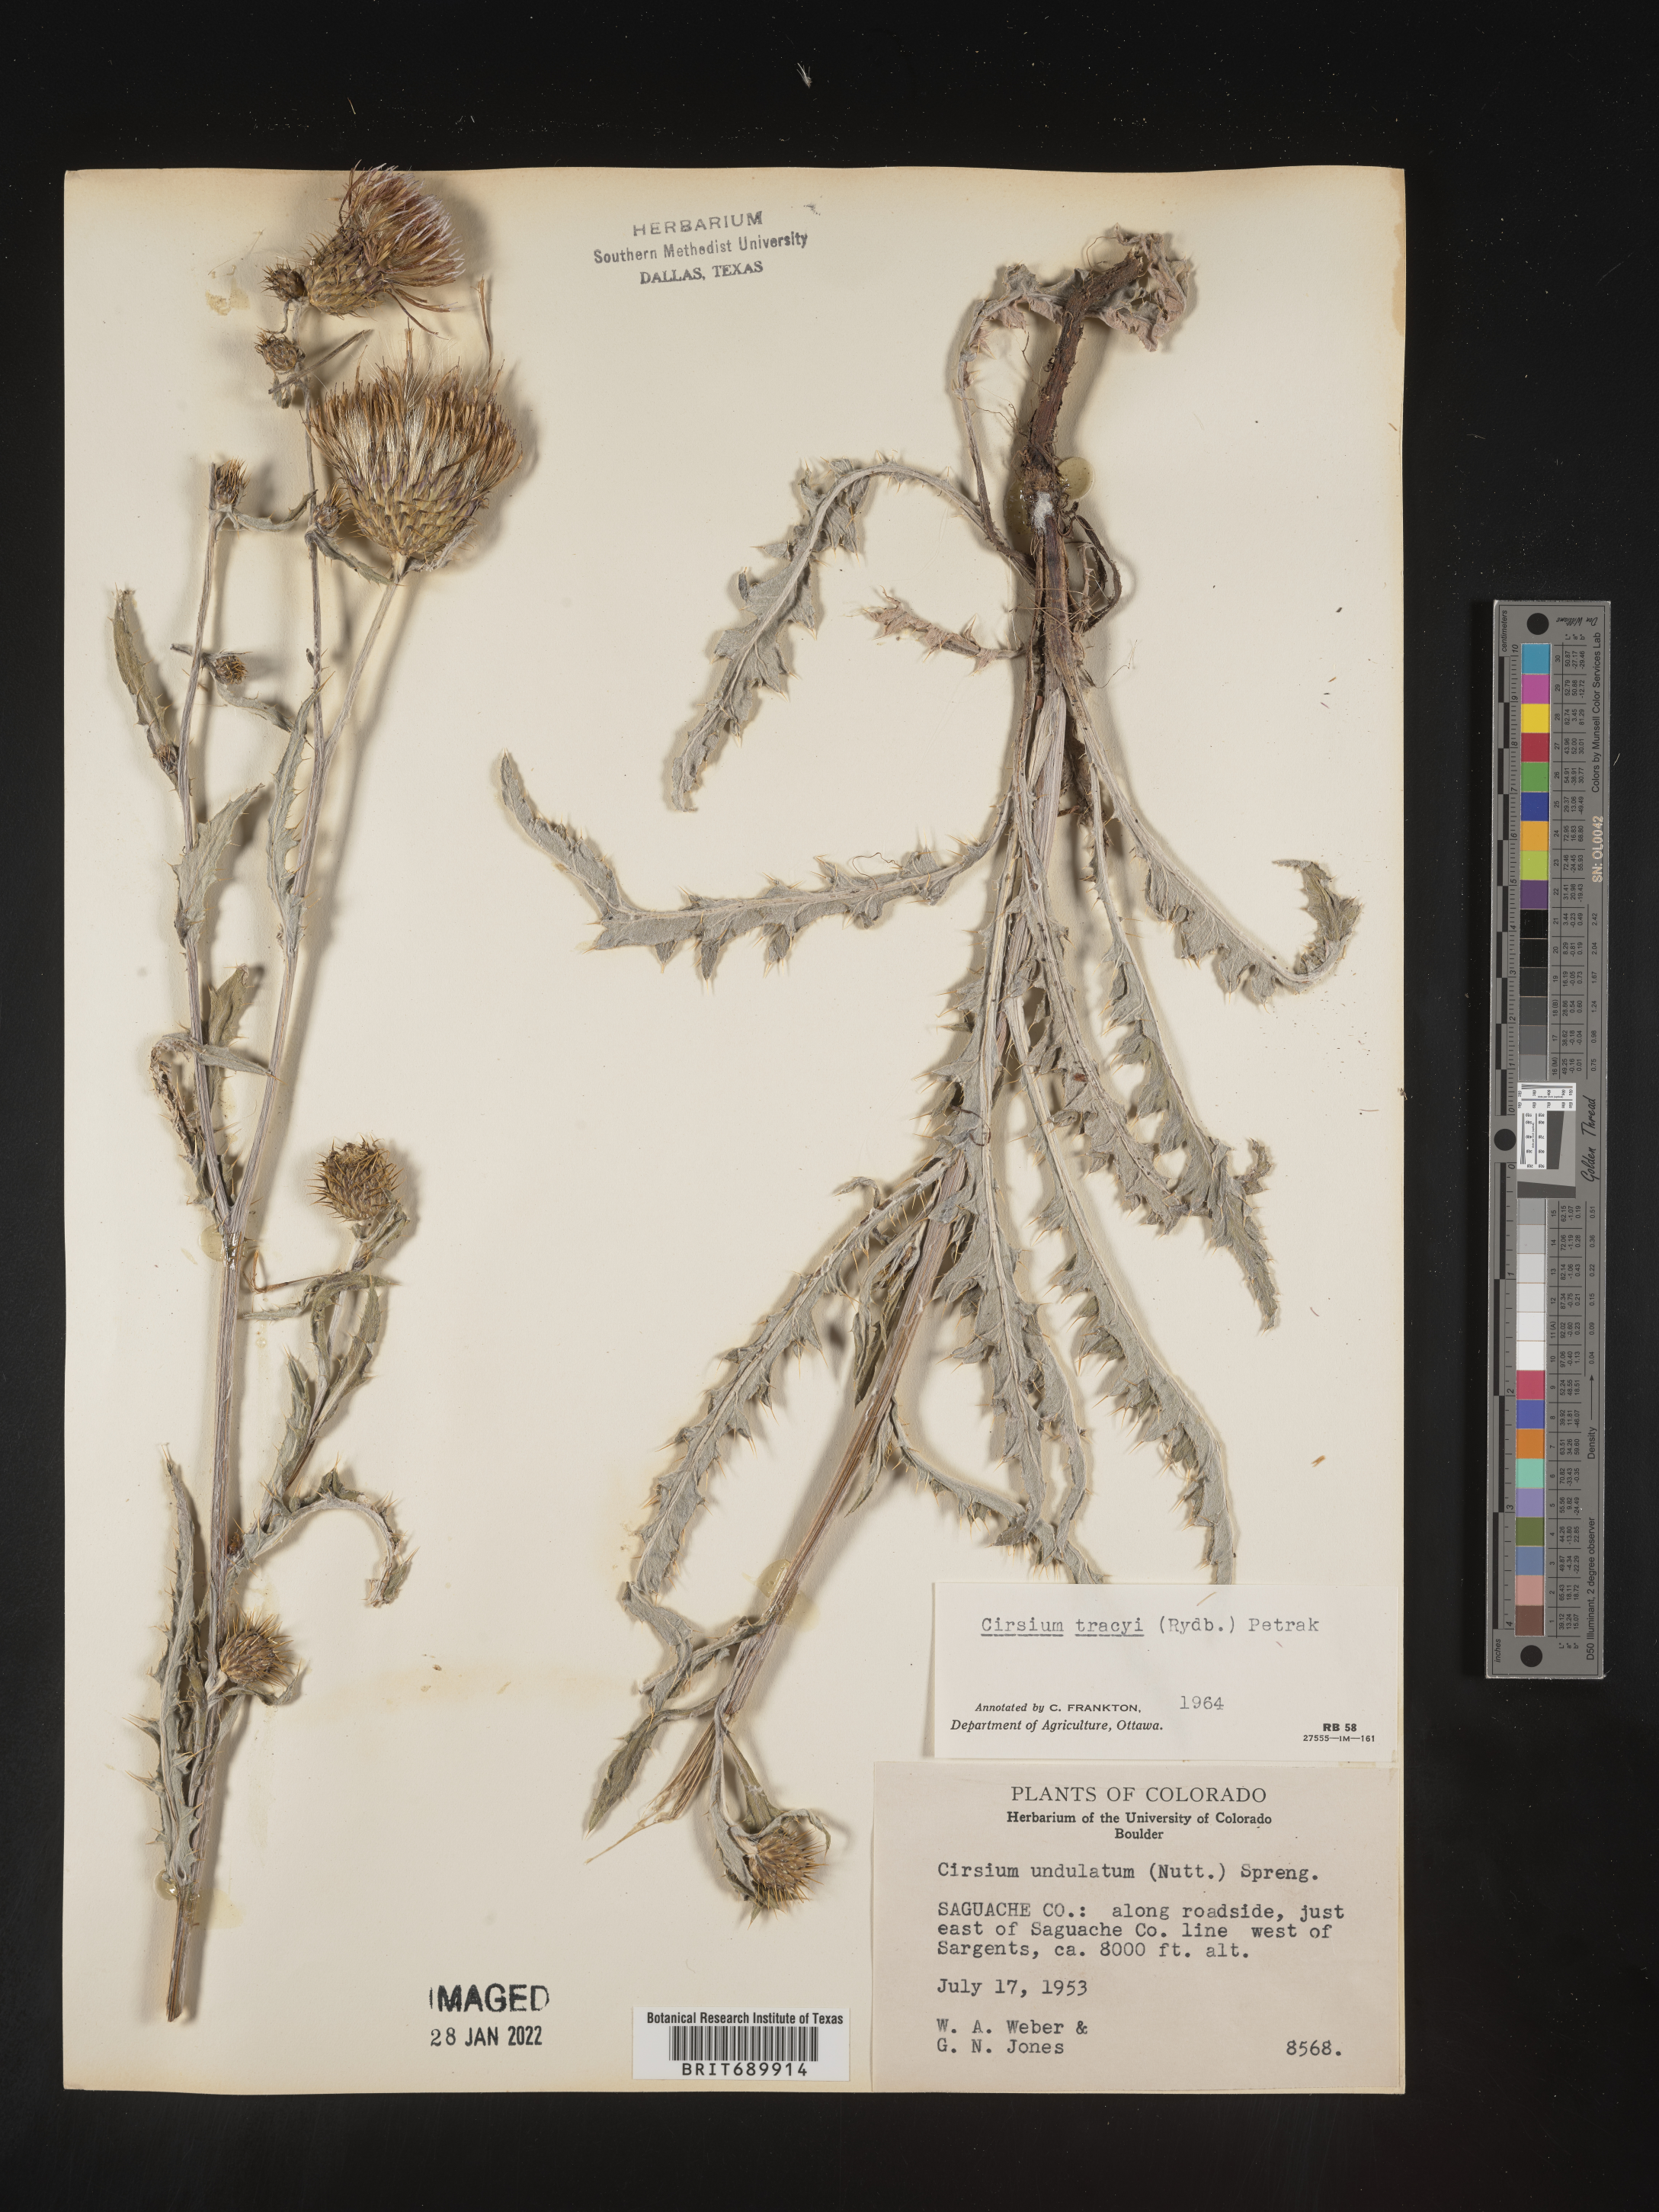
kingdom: Plantae
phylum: Tracheophyta
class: Magnoliopsida
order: Asterales
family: Asteraceae
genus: Cirsium
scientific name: Cirsium
